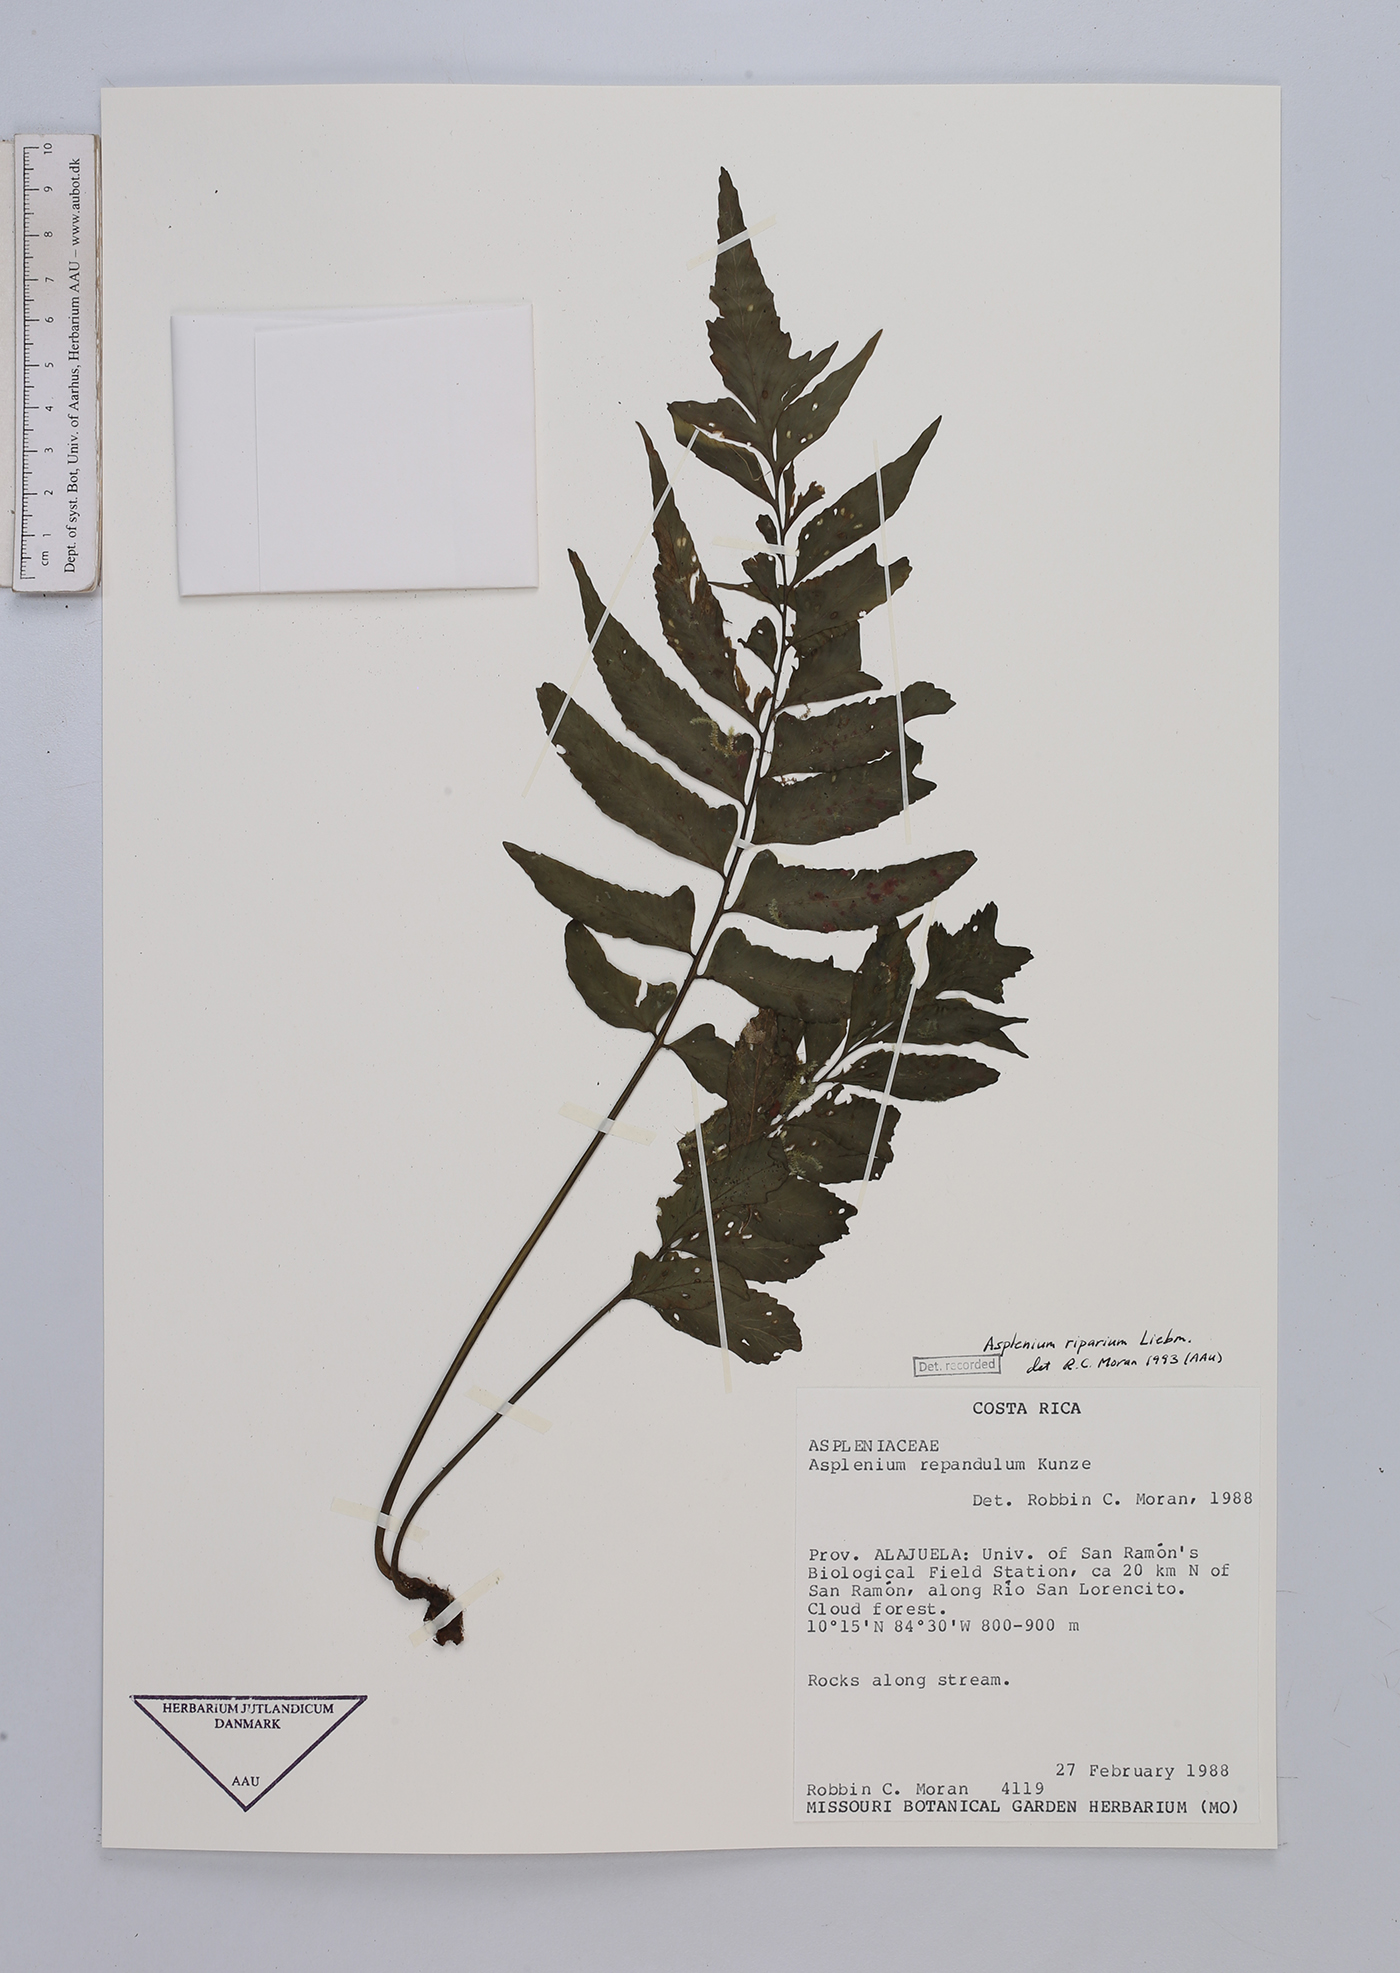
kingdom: Plantae
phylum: Tracheophyta
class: Polypodiopsida
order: Polypodiales
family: Aspleniaceae
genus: Hymenasplenium
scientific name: Hymenasplenium riparium
